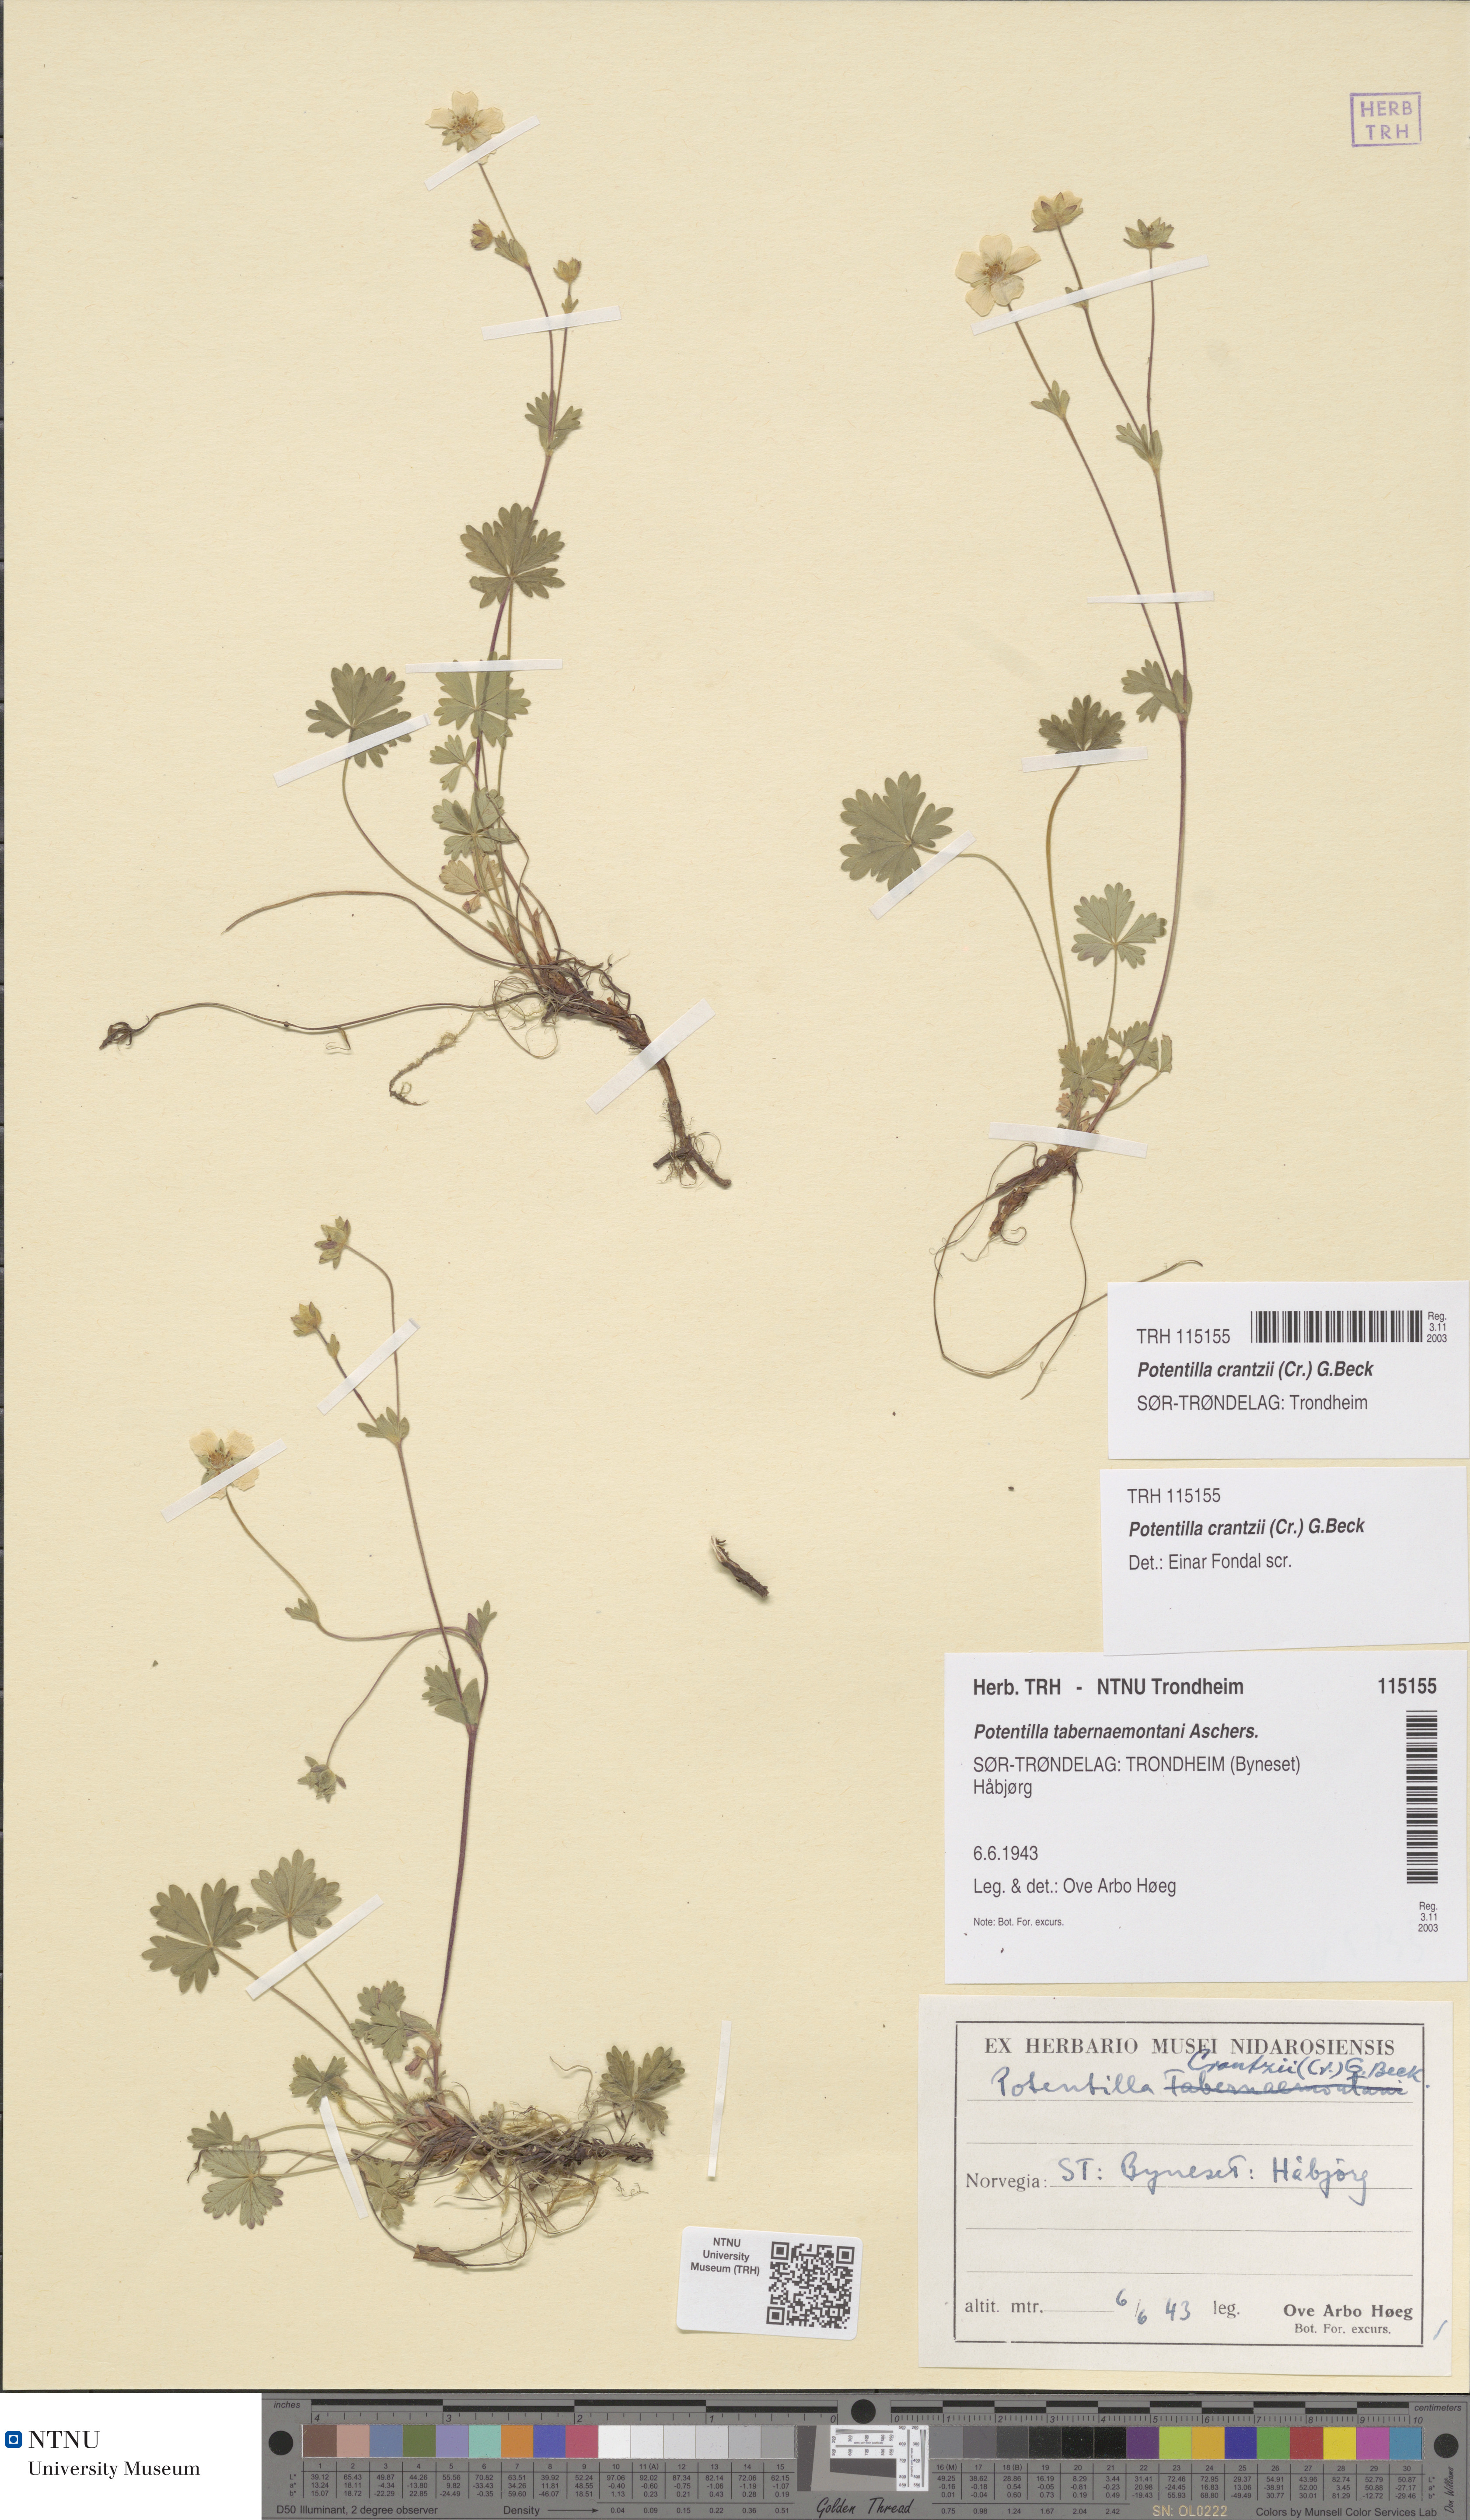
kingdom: Plantae
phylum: Tracheophyta
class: Magnoliopsida
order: Rosales
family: Rosaceae
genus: Potentilla
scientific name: Potentilla crantzii
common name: Alpine cinquefoil
